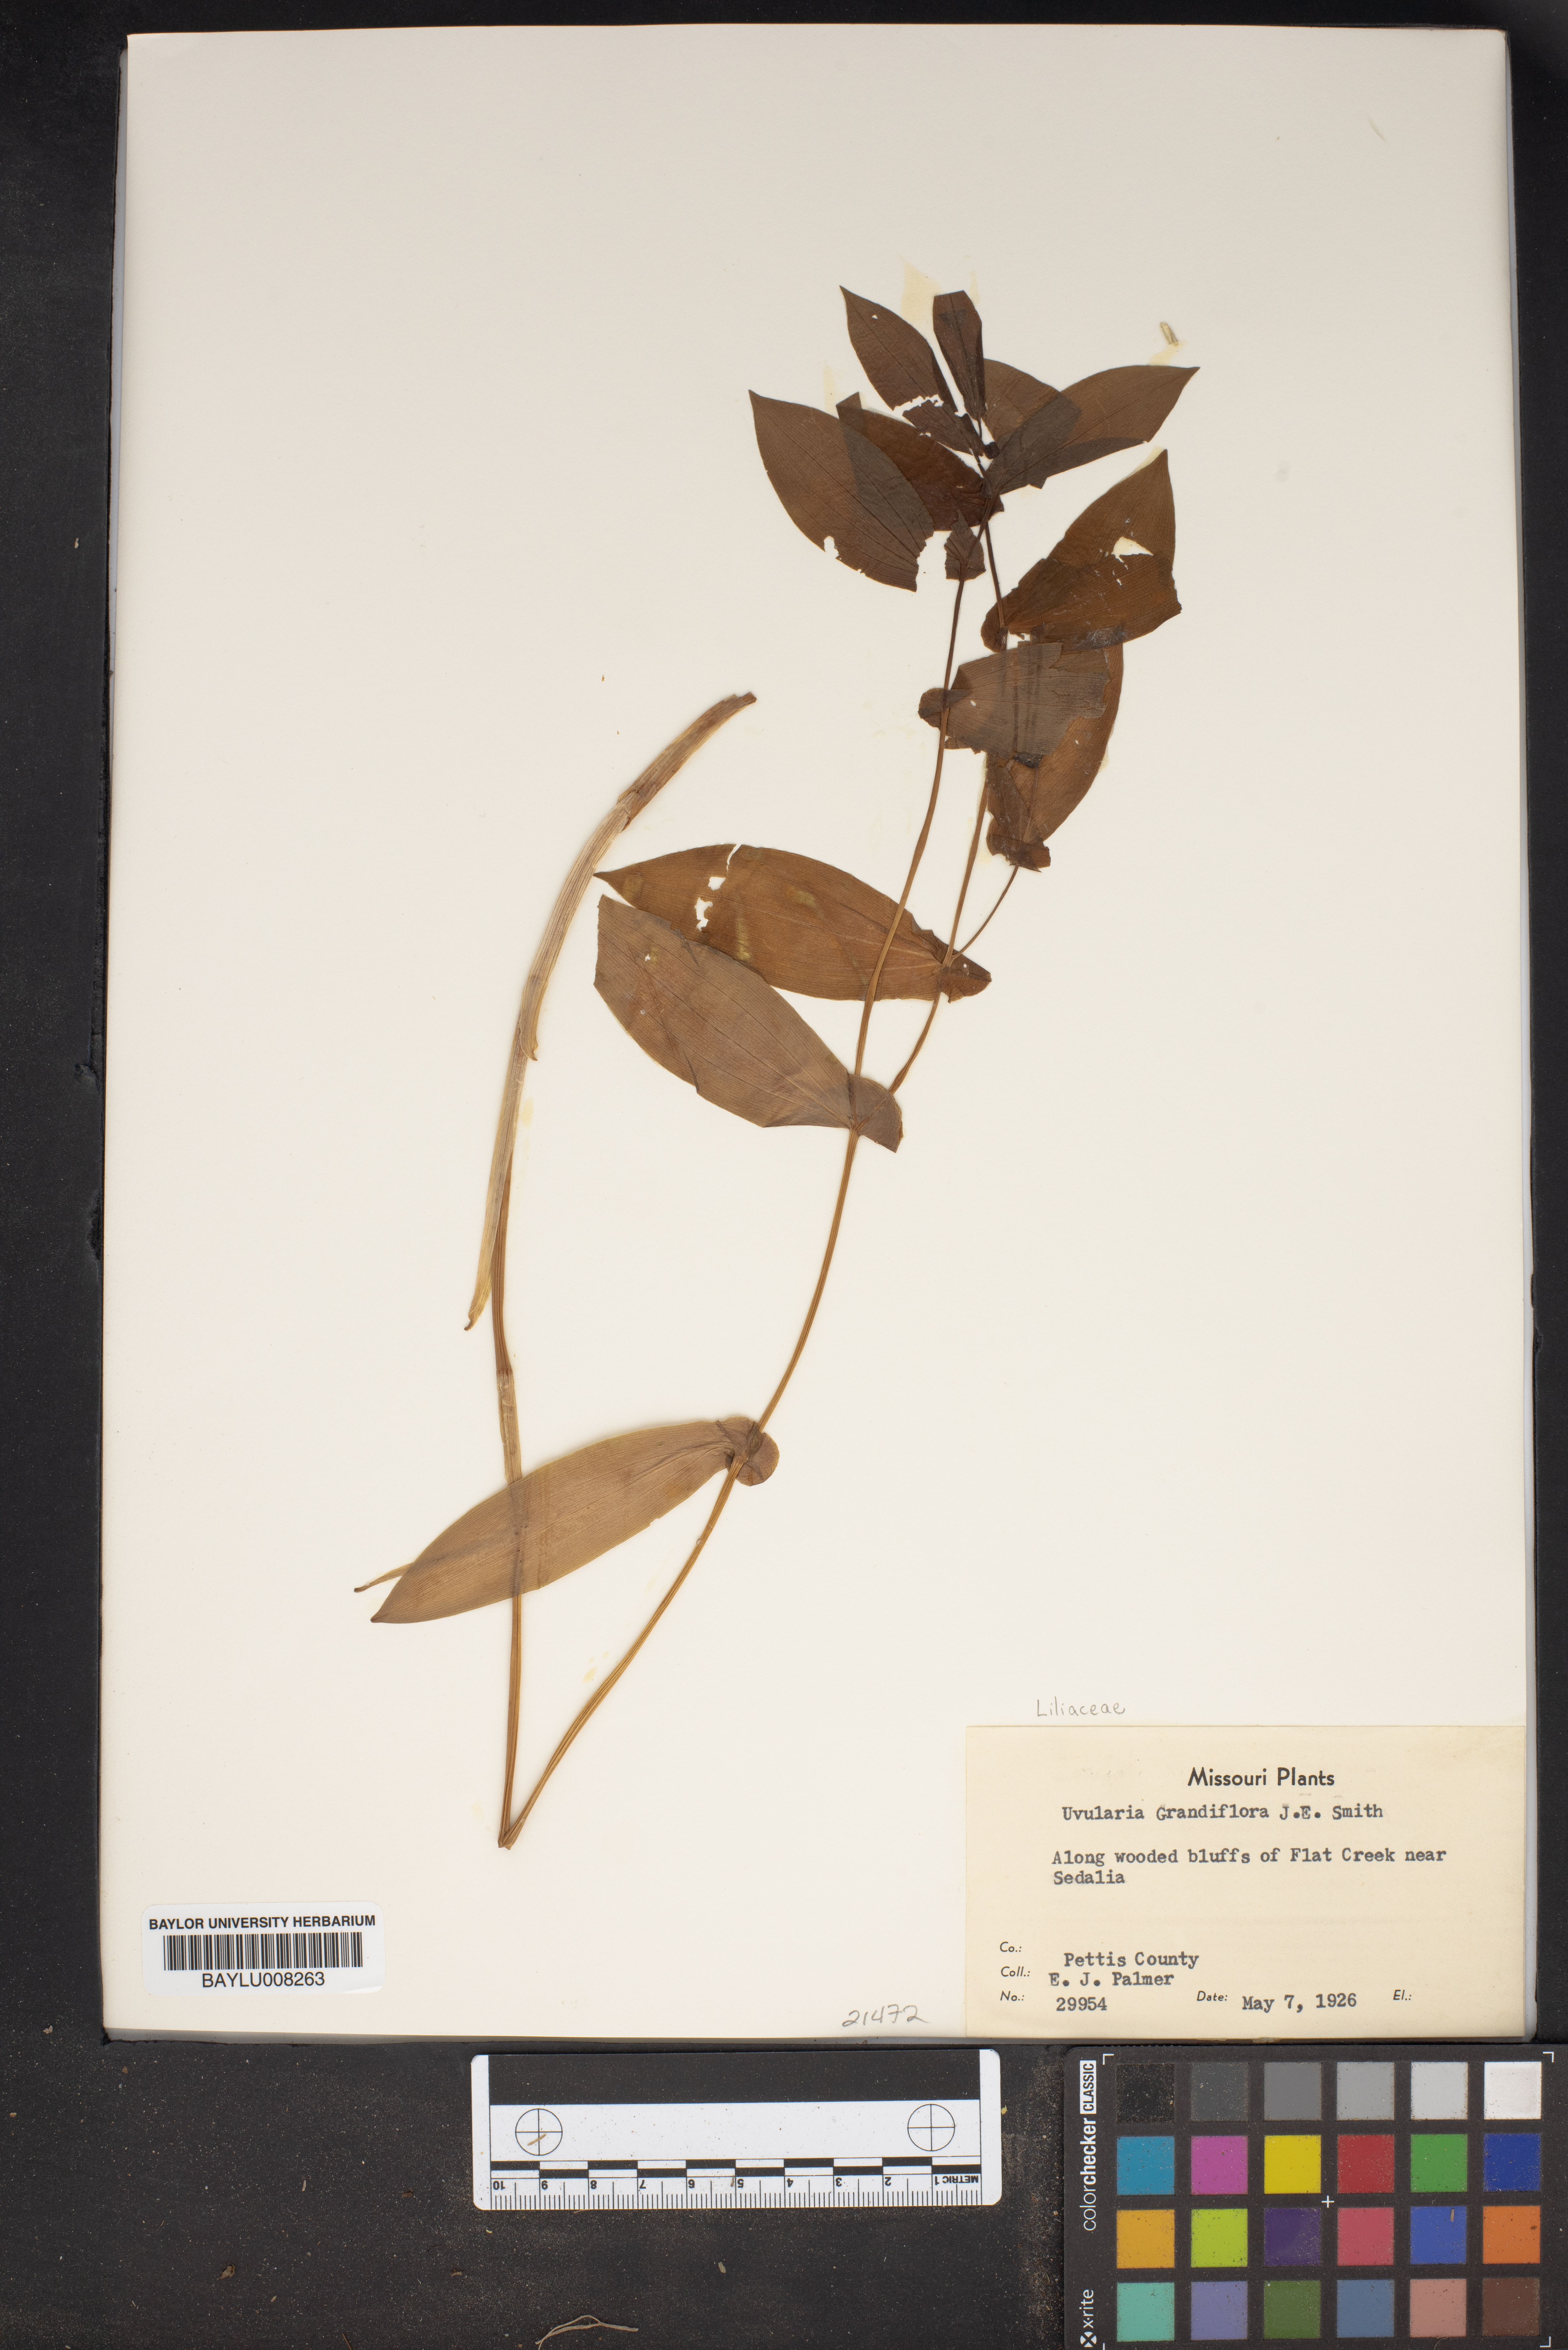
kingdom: Plantae
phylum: Tracheophyta
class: Liliopsida
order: Liliales
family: Colchicaceae
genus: Uvularia
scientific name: Uvularia grandiflora
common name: Bellwort
